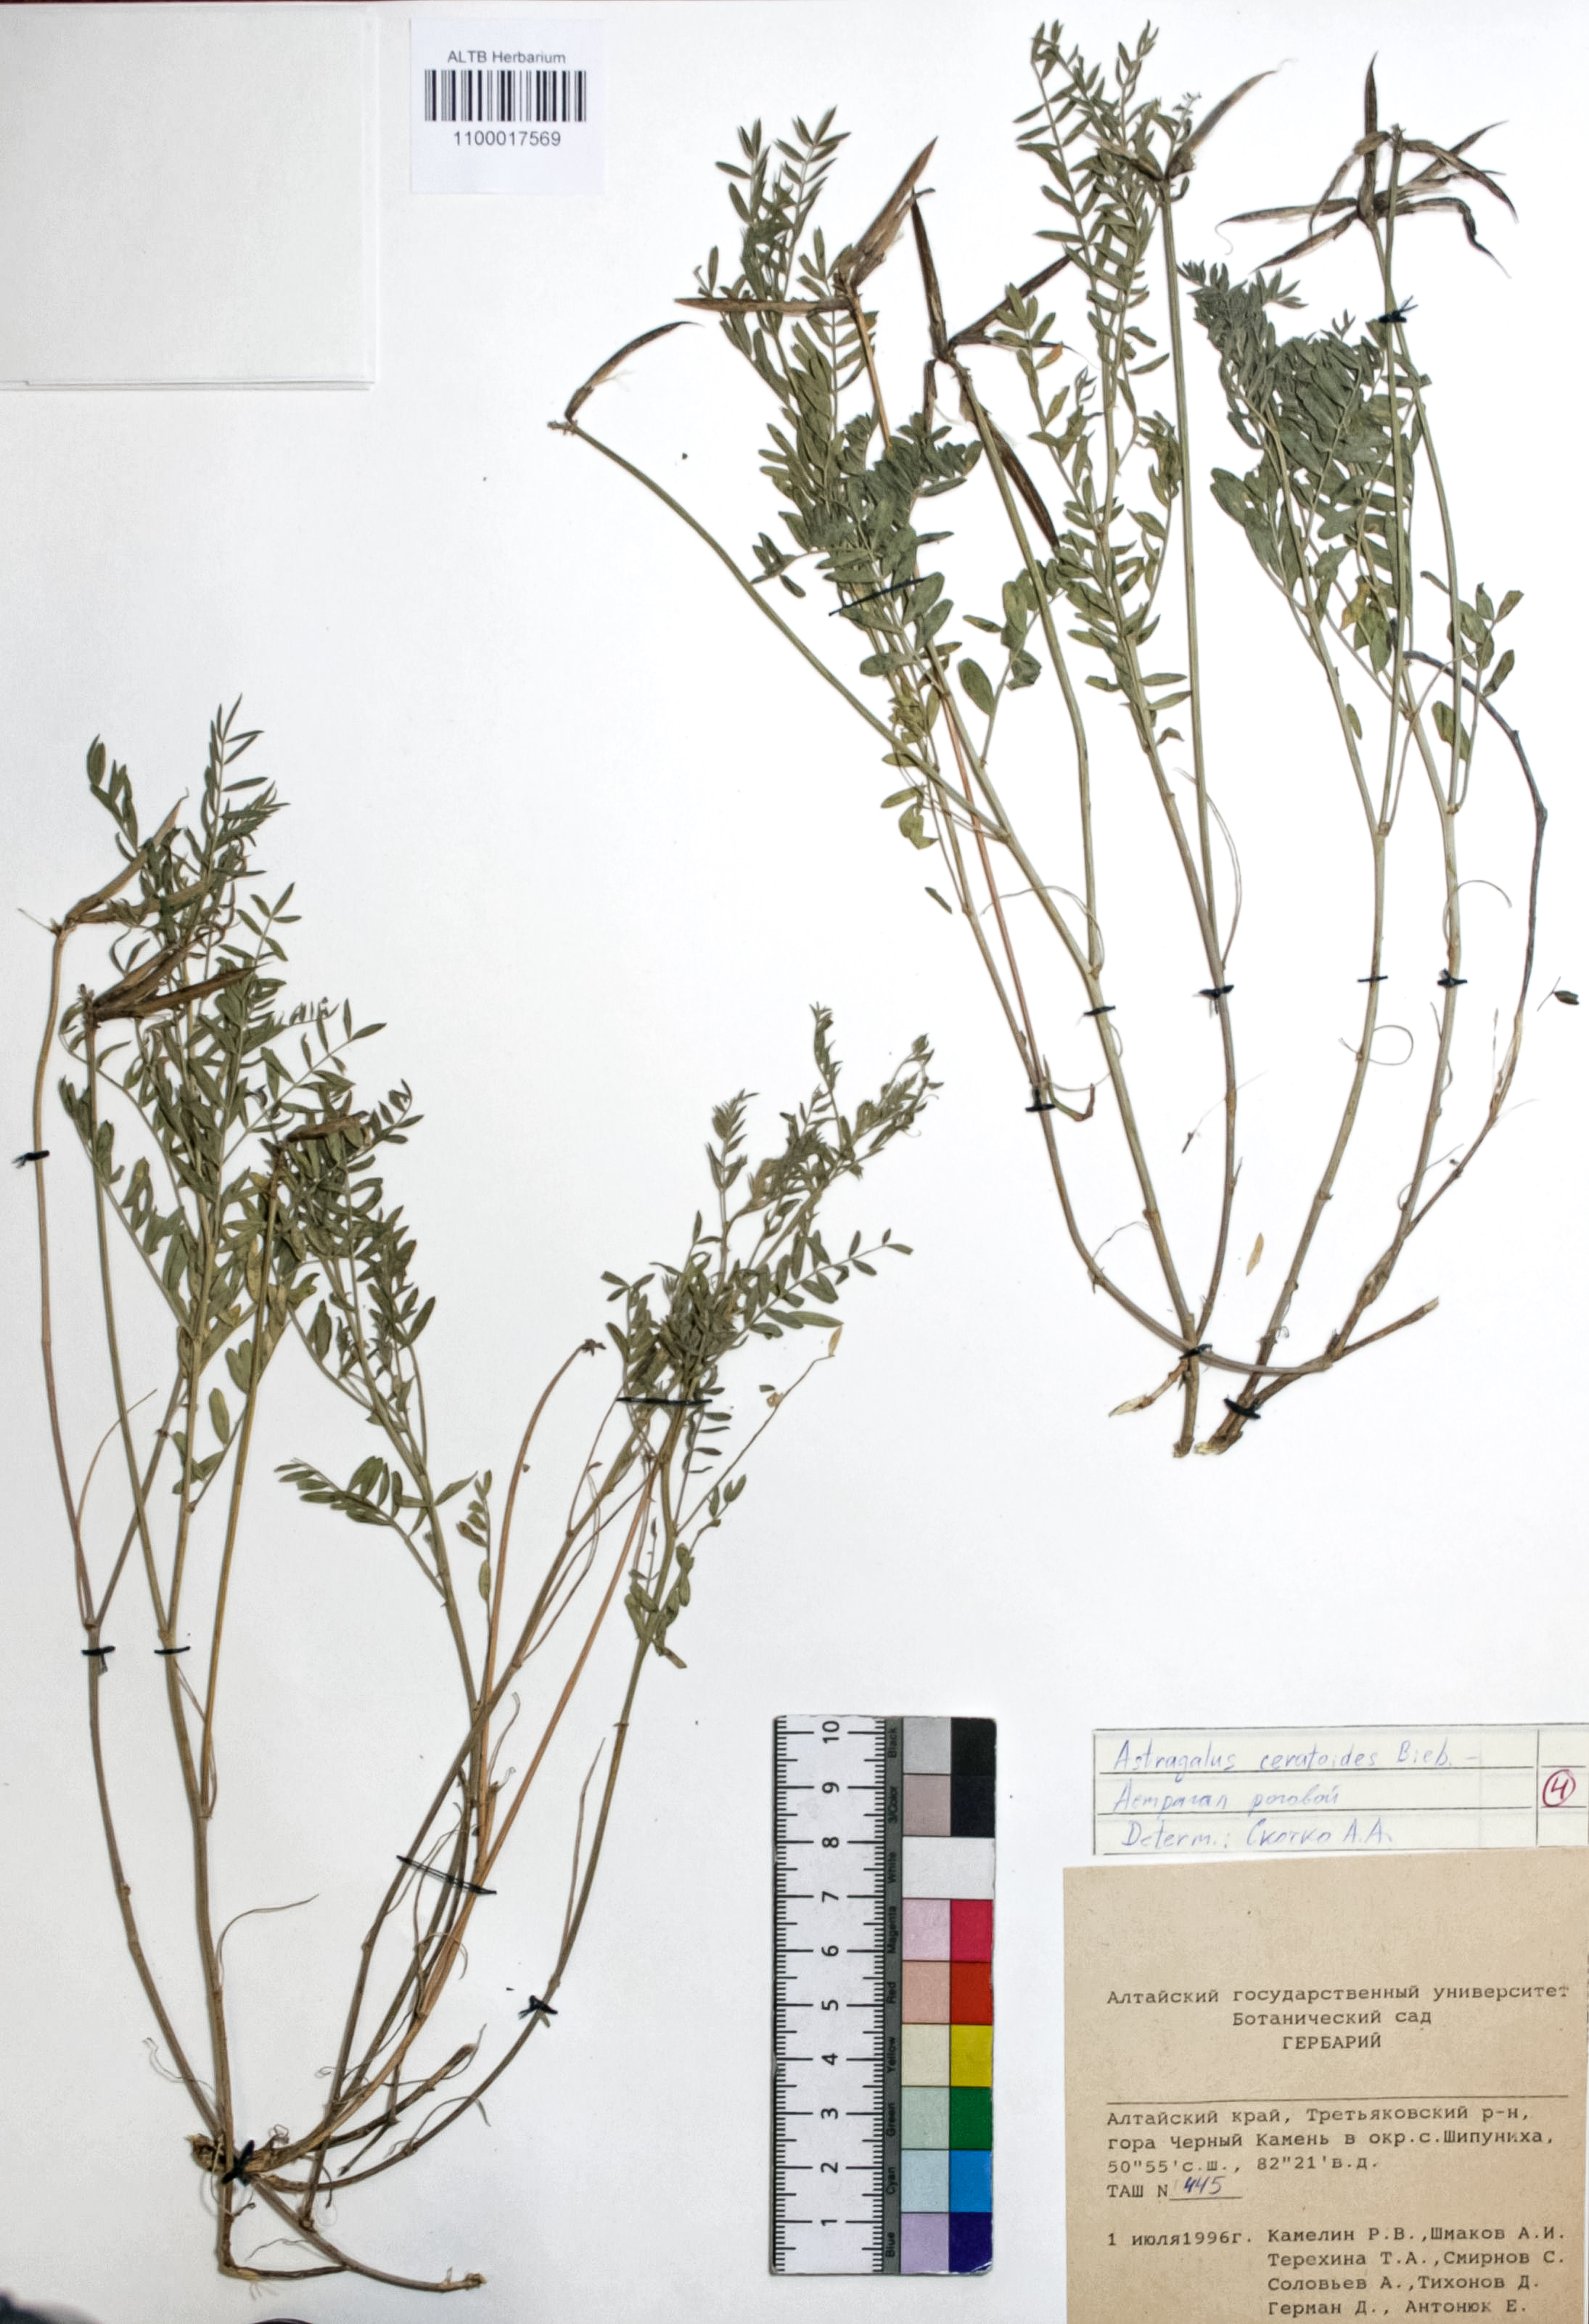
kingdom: Plantae
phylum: Tracheophyta
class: Magnoliopsida
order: Fabales
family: Fabaceae
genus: Astragalus
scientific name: Astragalus ceratoides
